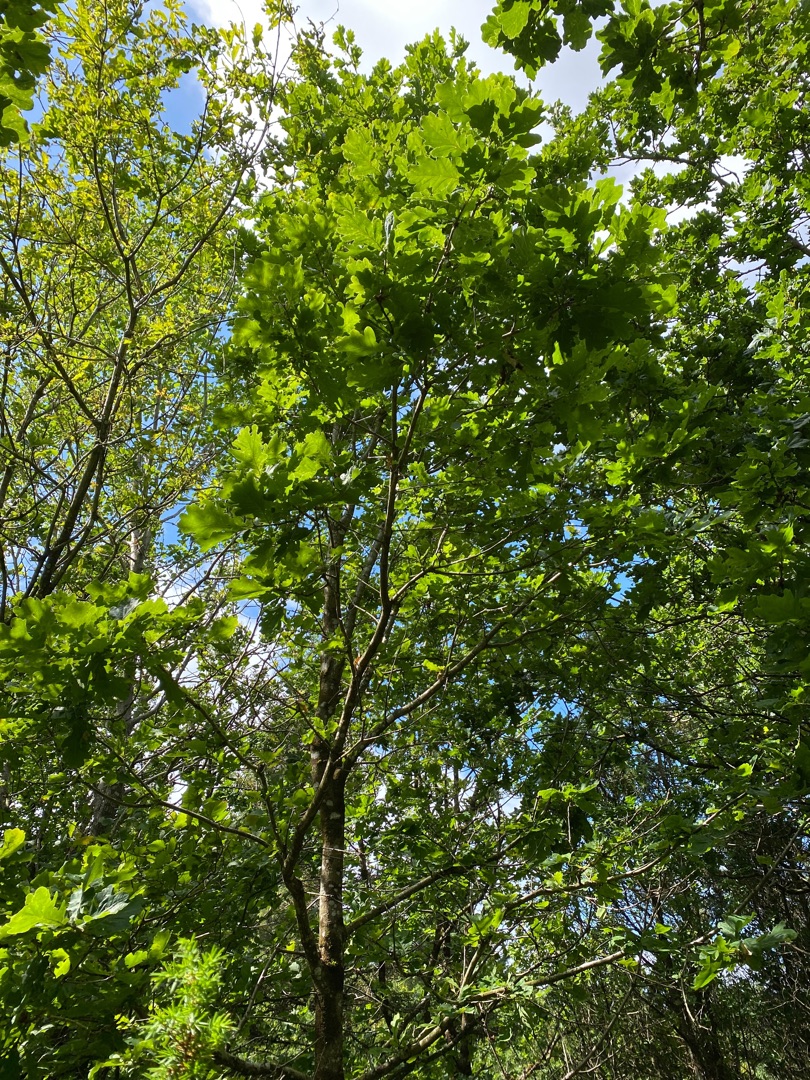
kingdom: Plantae
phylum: Tracheophyta
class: Magnoliopsida
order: Fagales
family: Fagaceae
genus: Quercus
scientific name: Quercus robur
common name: Stilk-eg/almindelig eg
